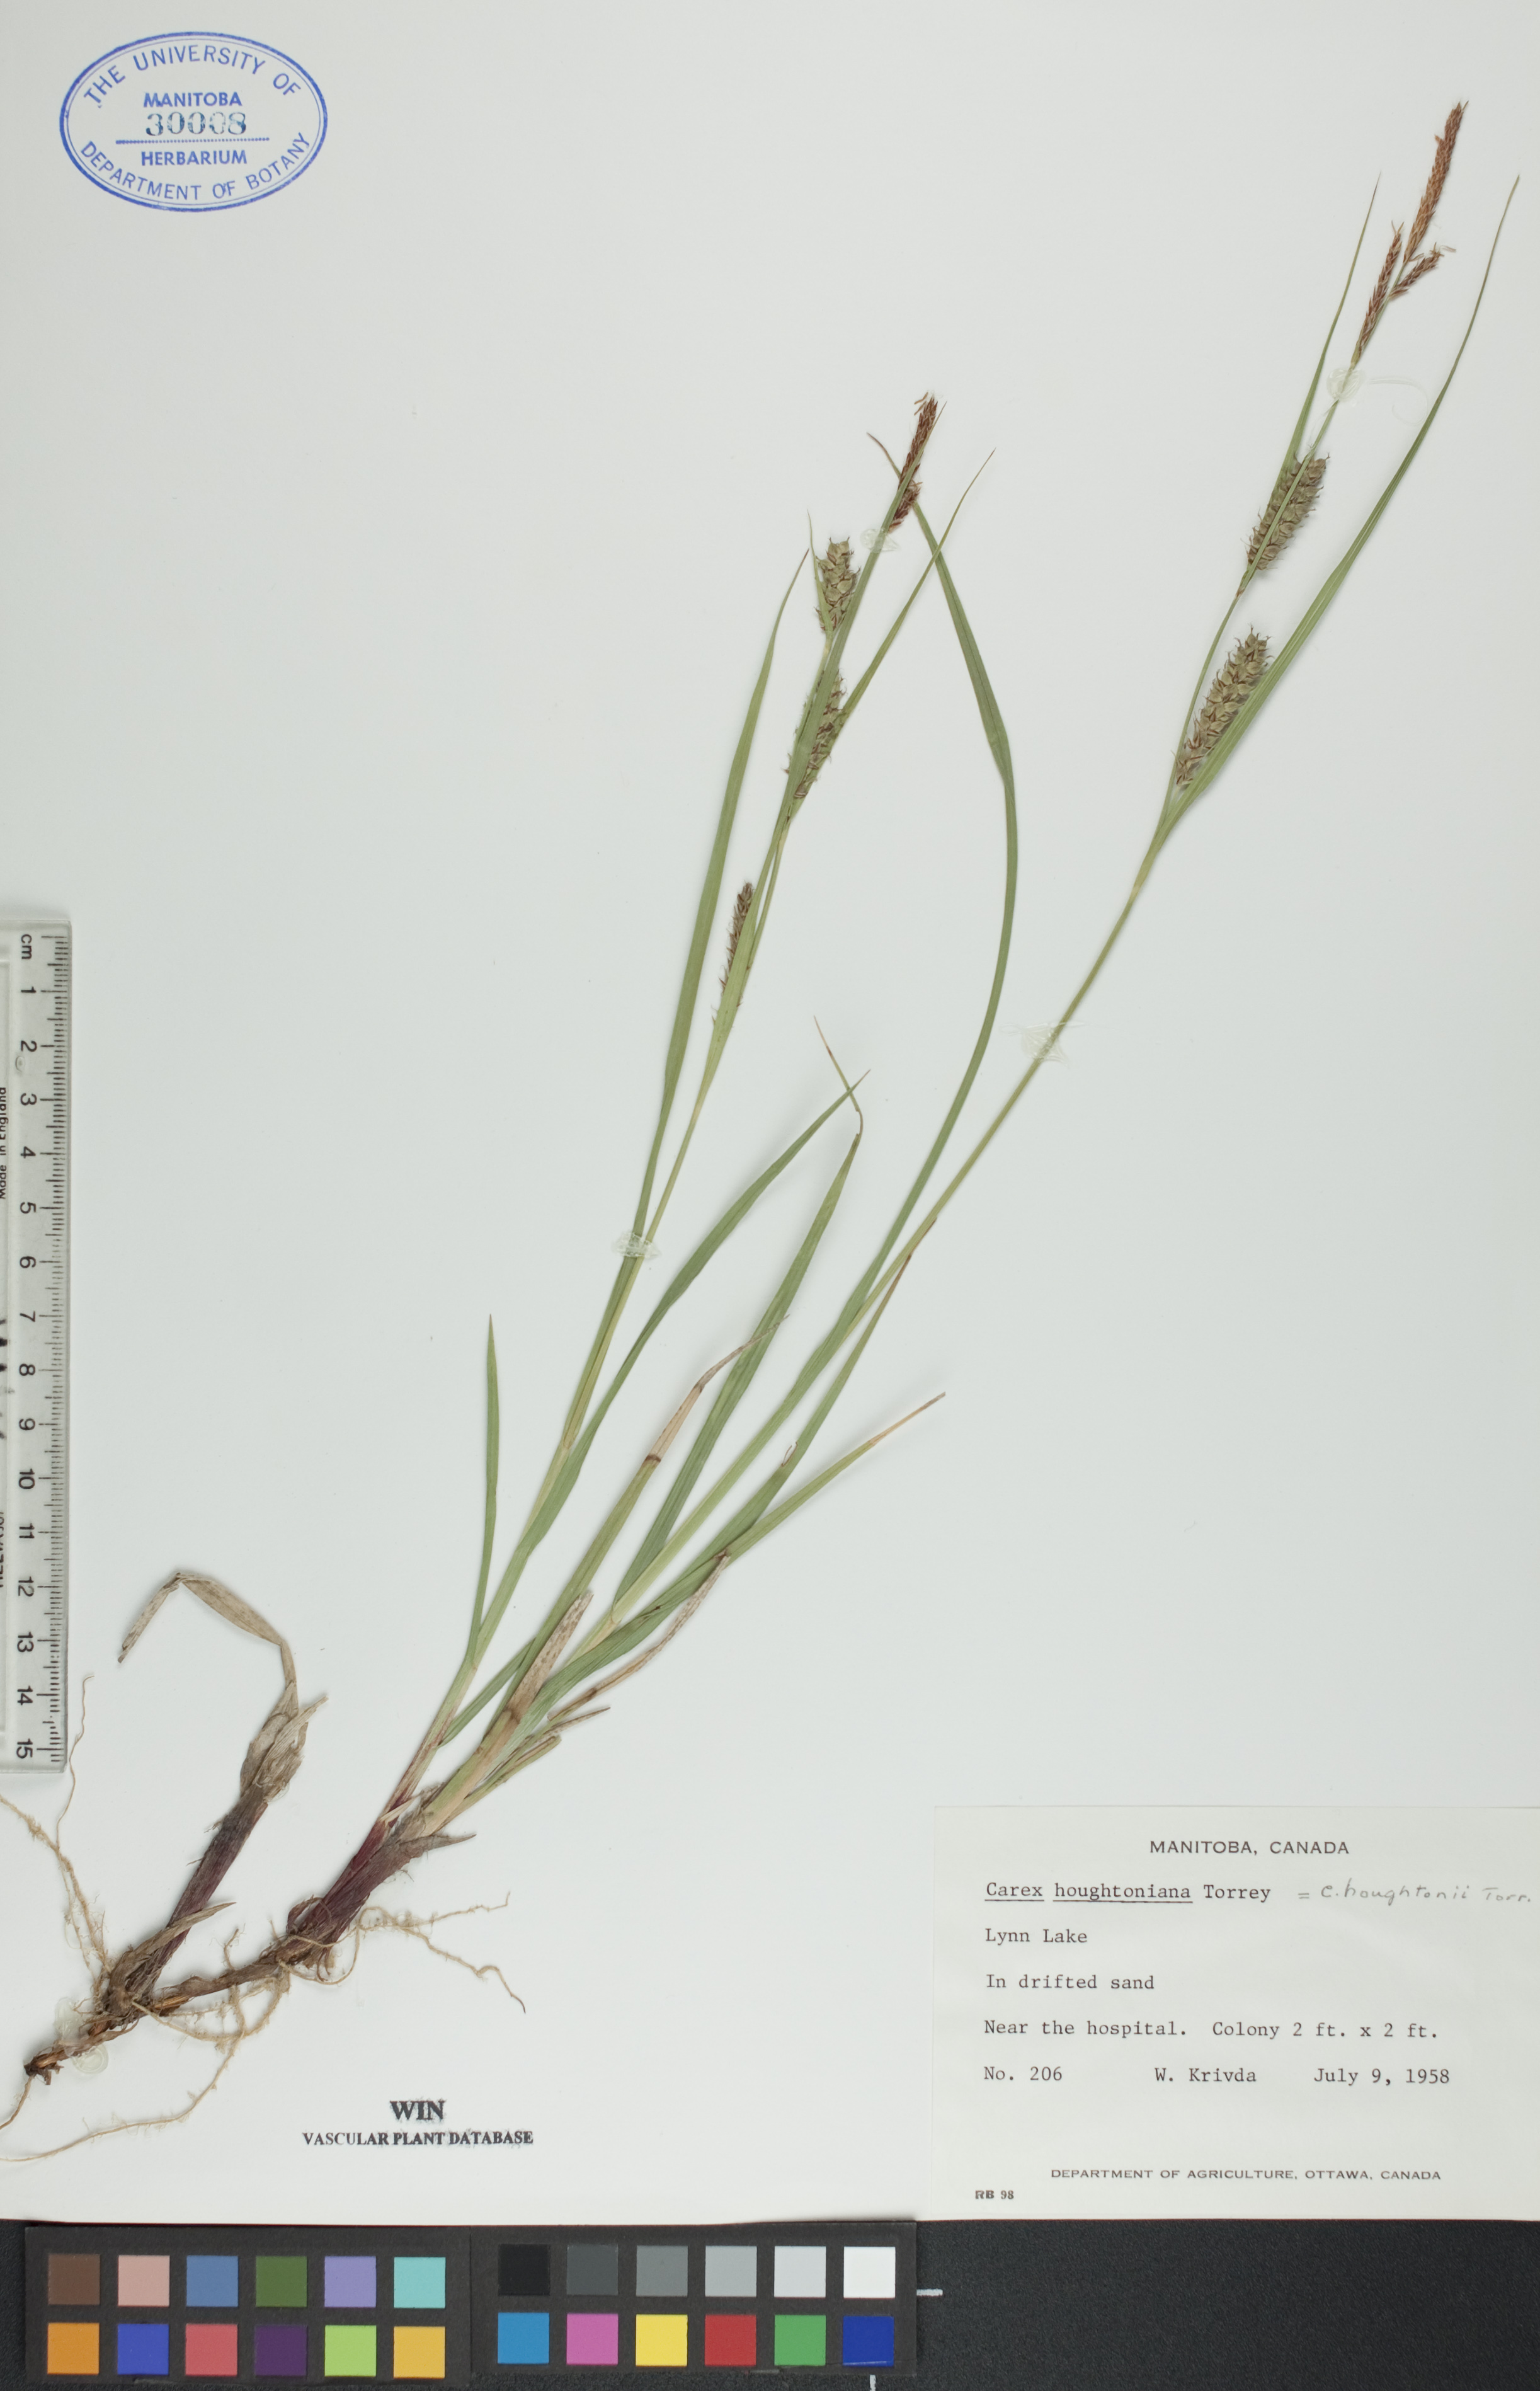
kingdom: Plantae
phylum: Tracheophyta
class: Liliopsida
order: Poales
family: Cyperaceae
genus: Carex
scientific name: Carex houghtoniana
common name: Houghton's sedge
